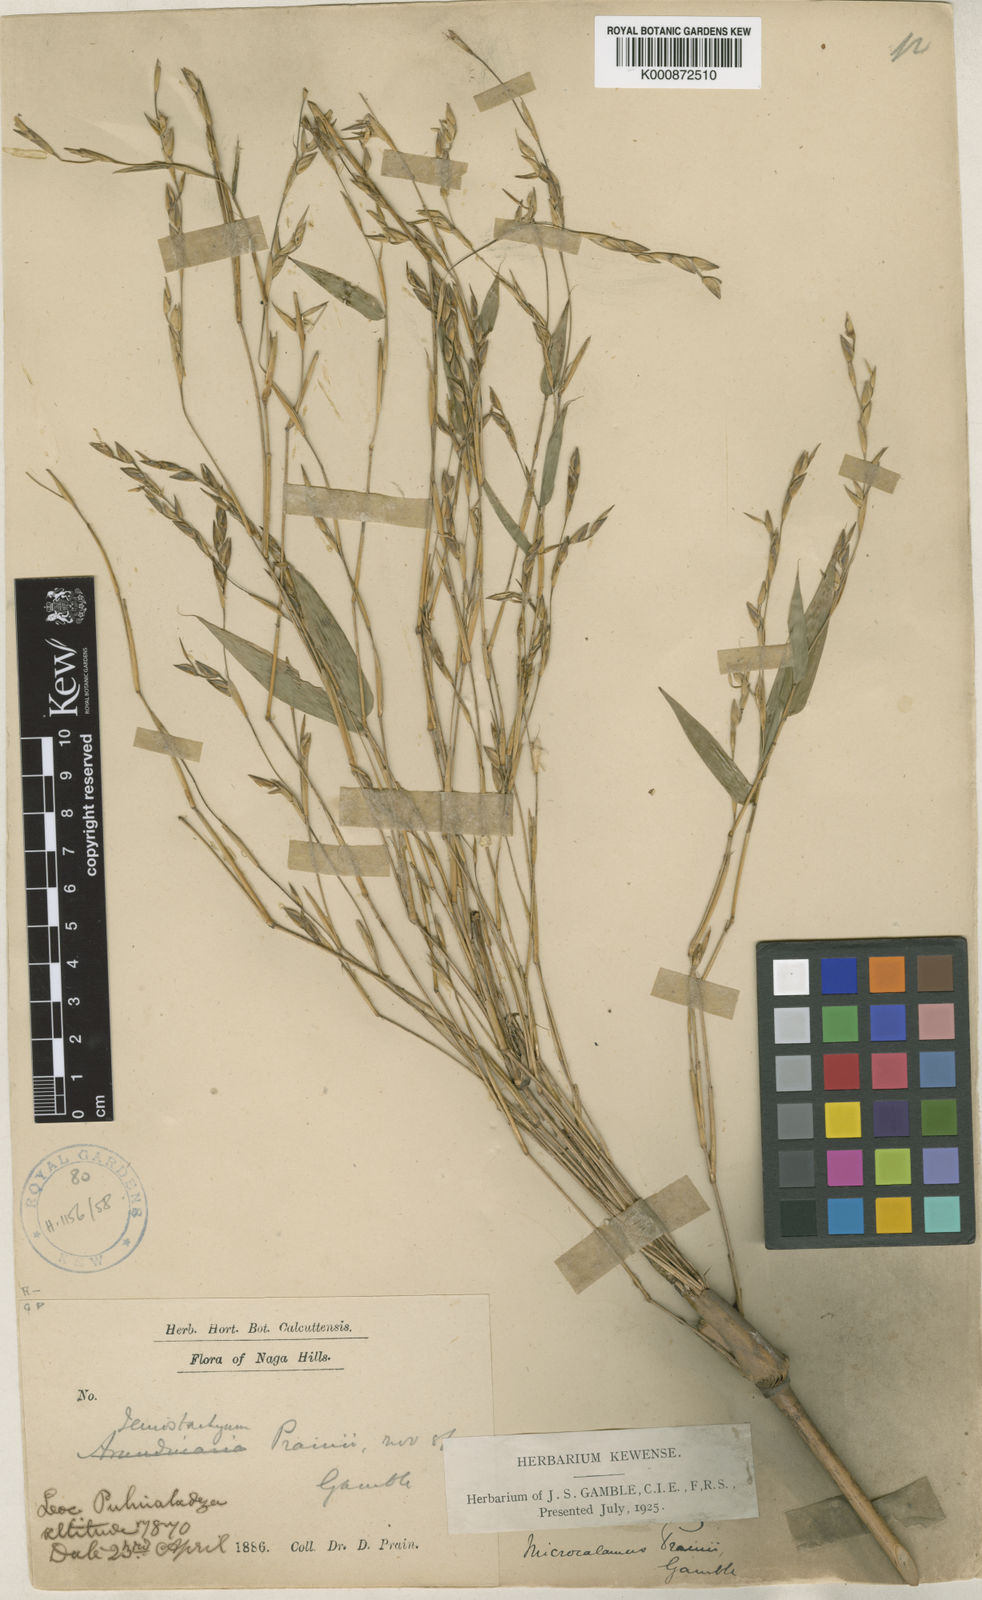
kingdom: Plantae
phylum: Tracheophyta
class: Liliopsida
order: Poales
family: Poaceae
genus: Neomicrocalamus
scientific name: Neomicrocalamus prainii
